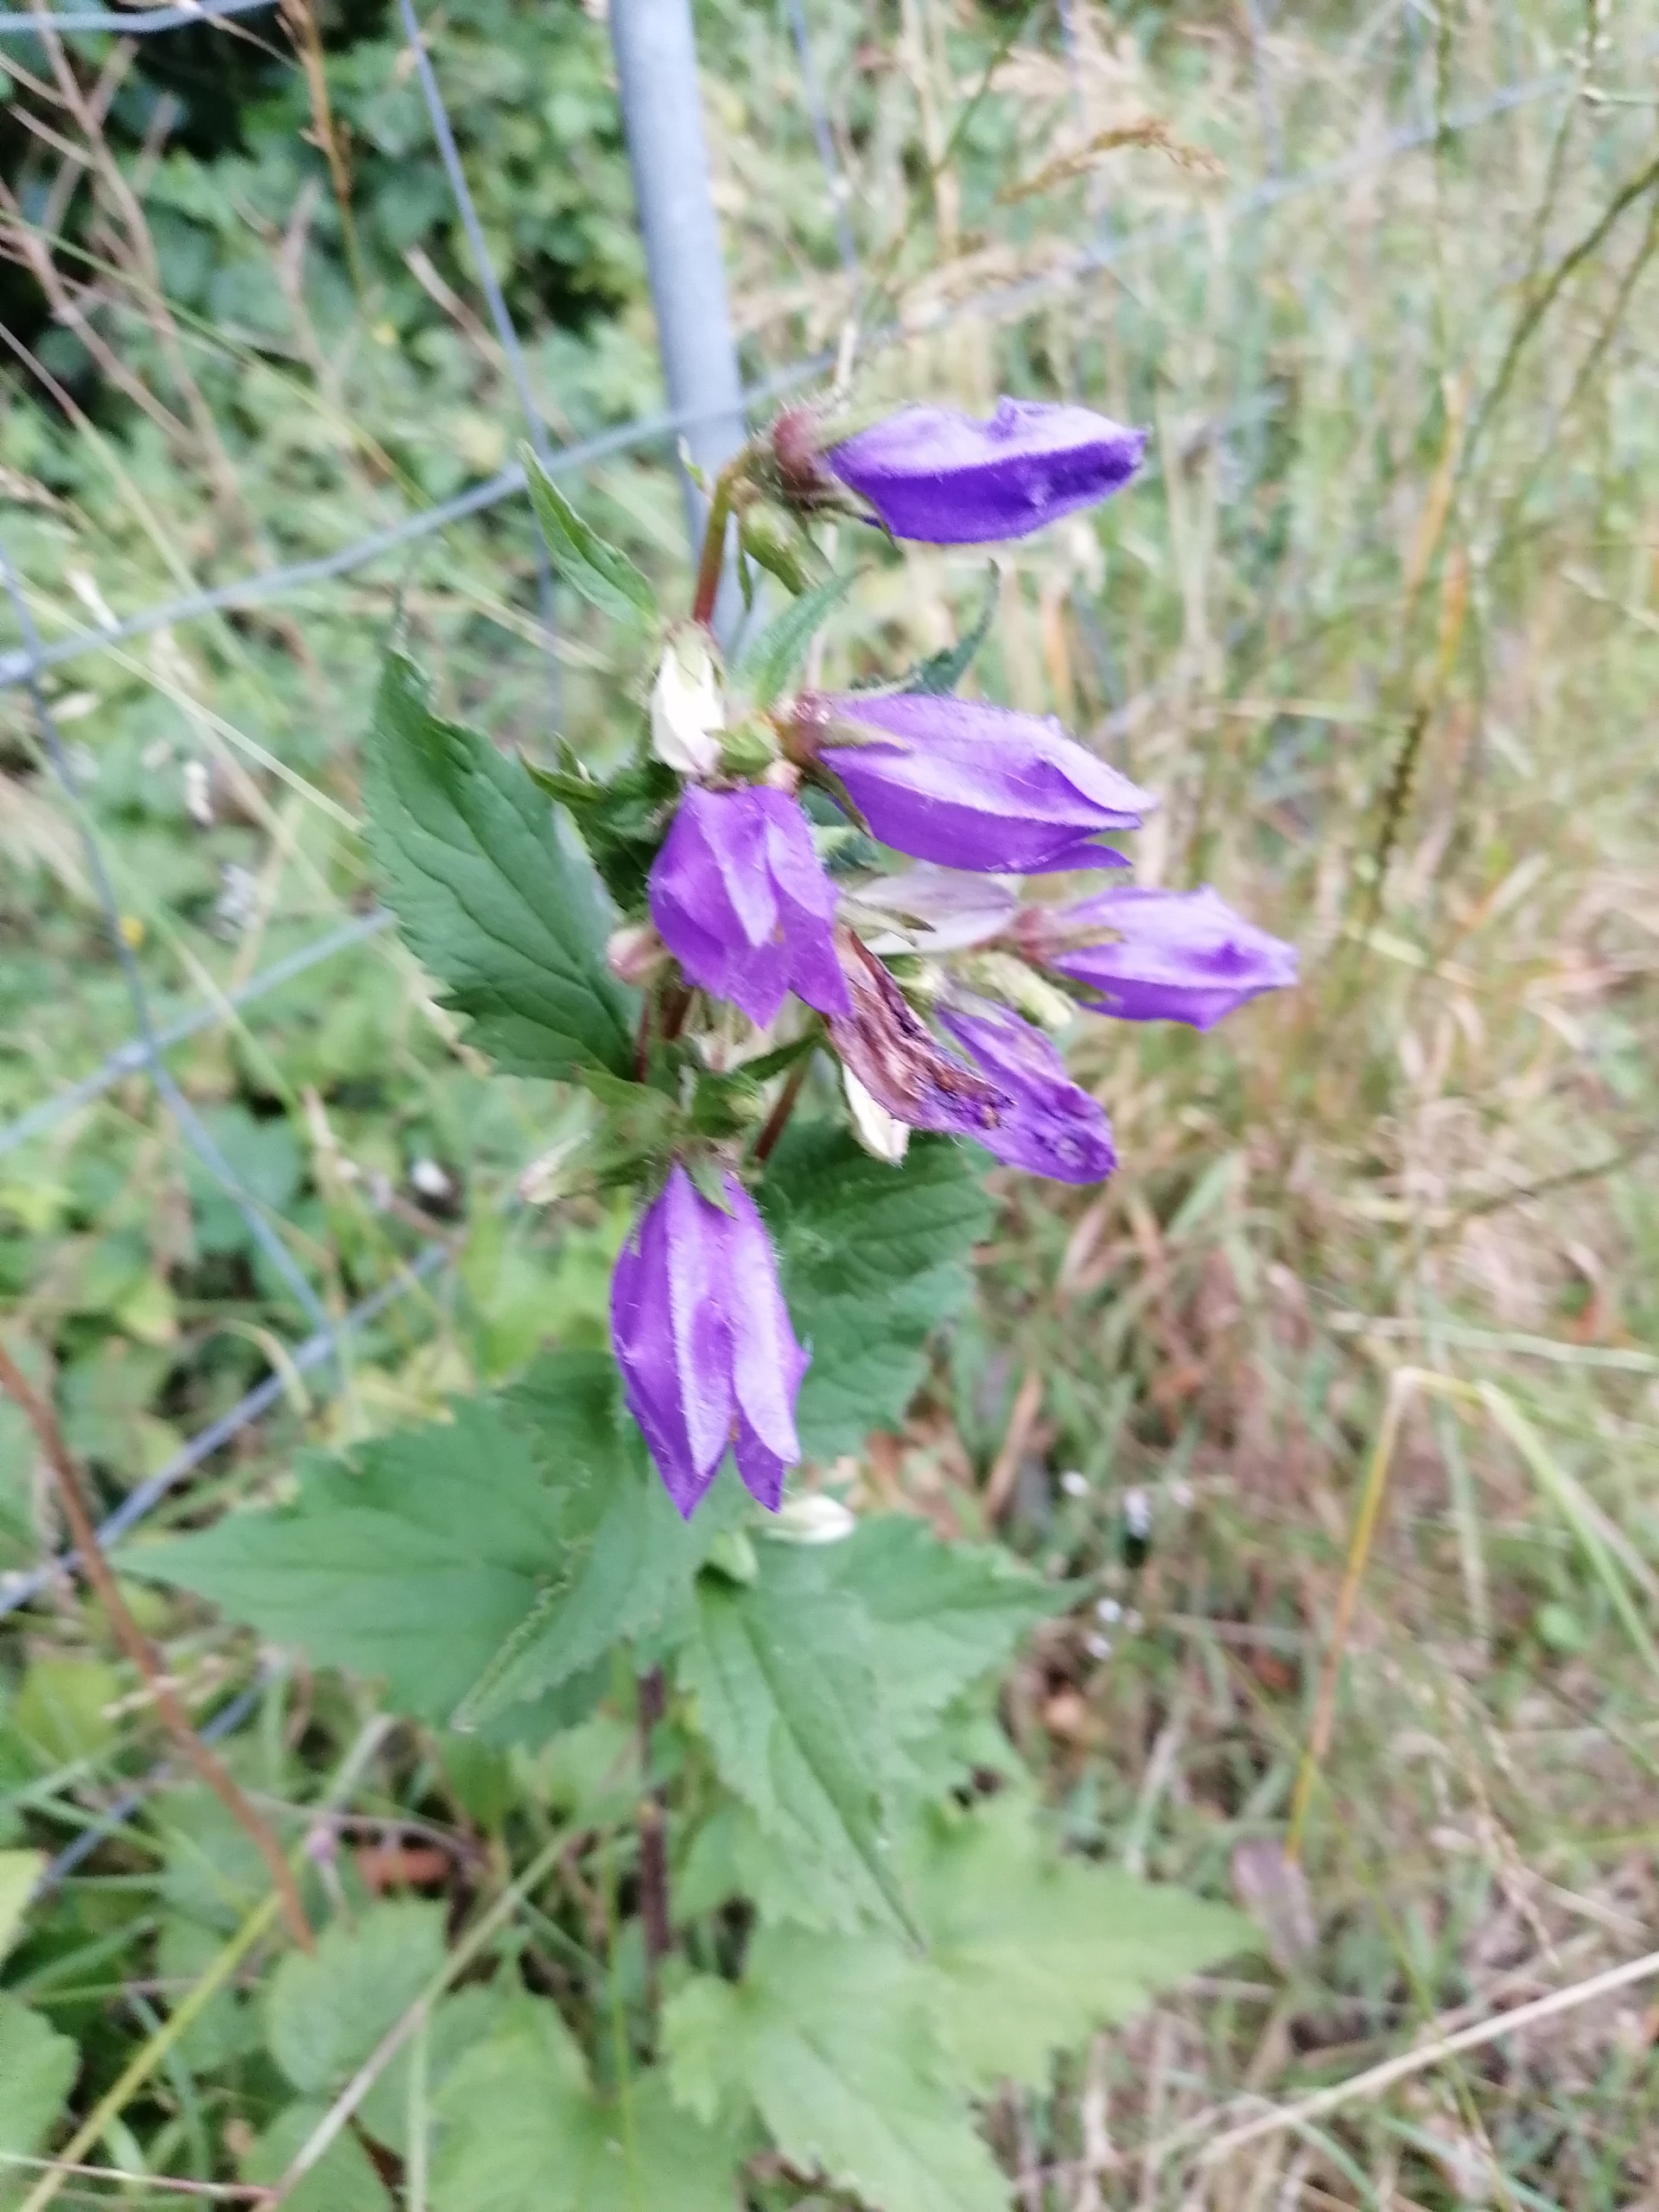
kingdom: Plantae
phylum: Tracheophyta
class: Magnoliopsida
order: Asterales
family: Campanulaceae
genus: Campanula
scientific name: Campanula trachelium
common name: Nælde-klokke
